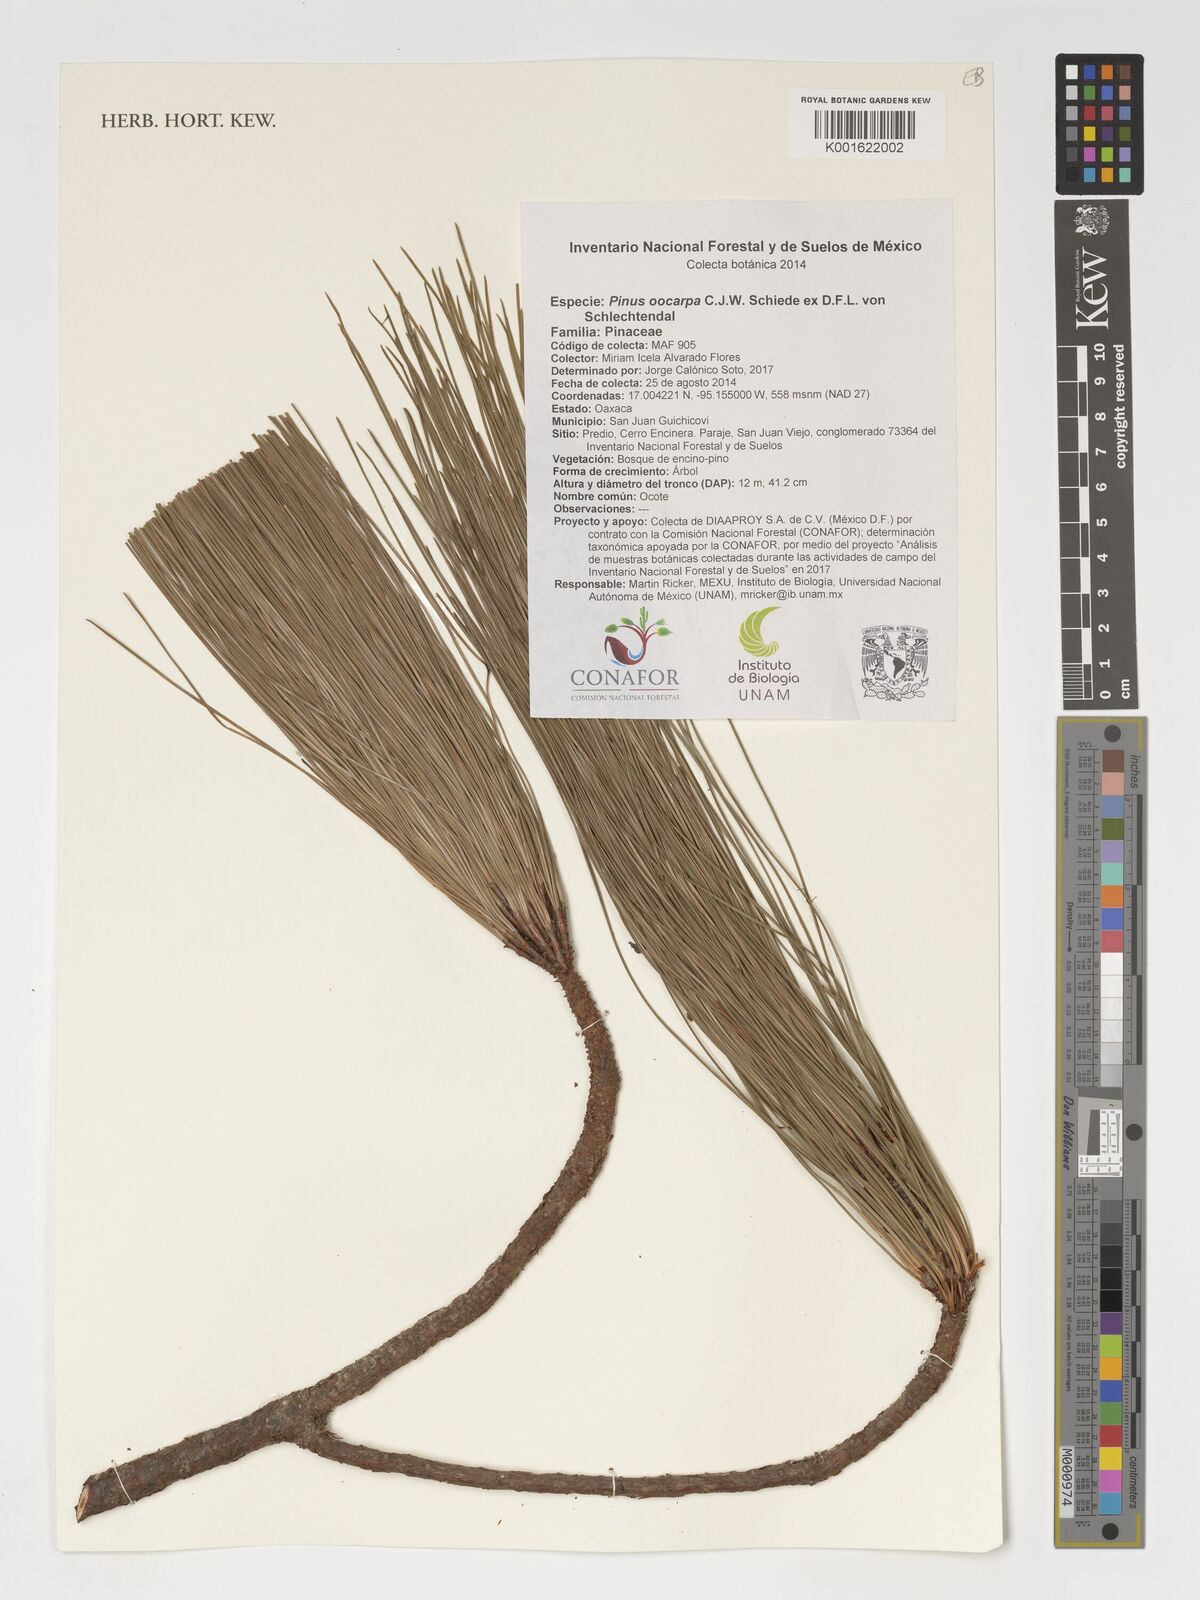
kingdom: Plantae
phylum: Tracheophyta
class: Pinopsida
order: Pinales
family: Pinaceae
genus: Pinus
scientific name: Pinus oocarpa
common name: Egg-cone pine
